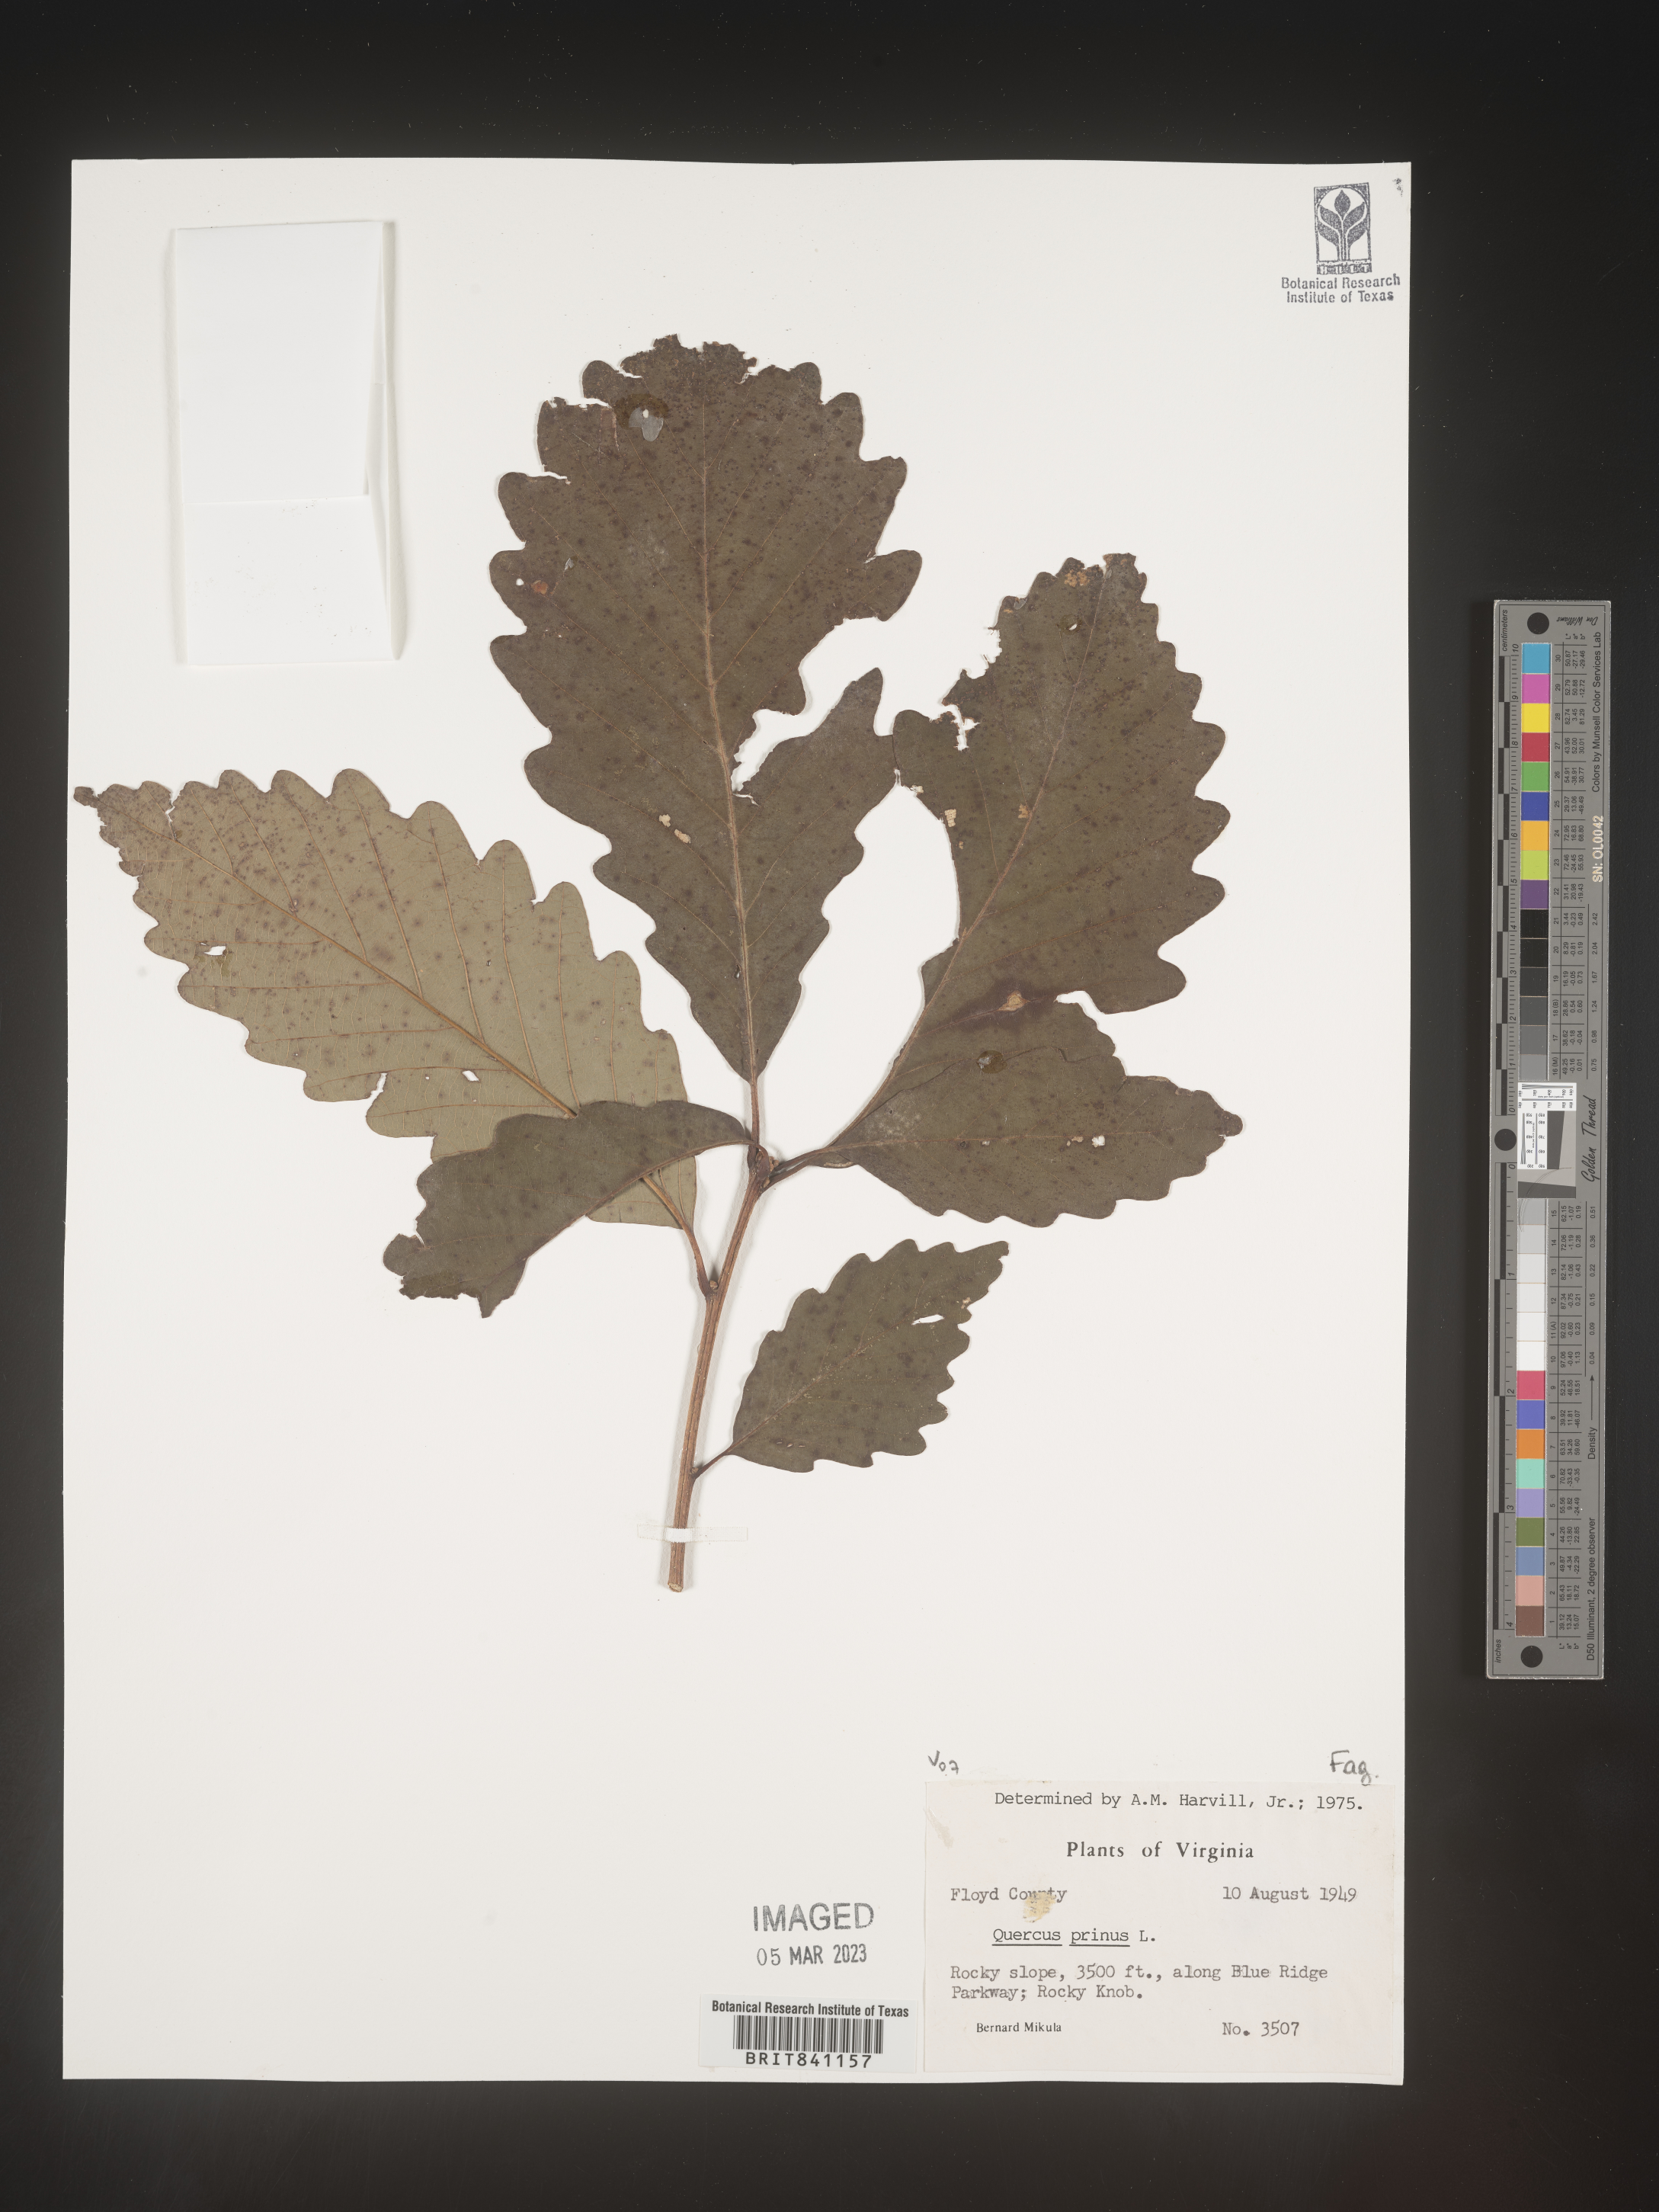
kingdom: Plantae
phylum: Tracheophyta
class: Magnoliopsida
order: Fagales
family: Fagaceae
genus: Quercus
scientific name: Quercus michauxii
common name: Swamp chestnut oak
